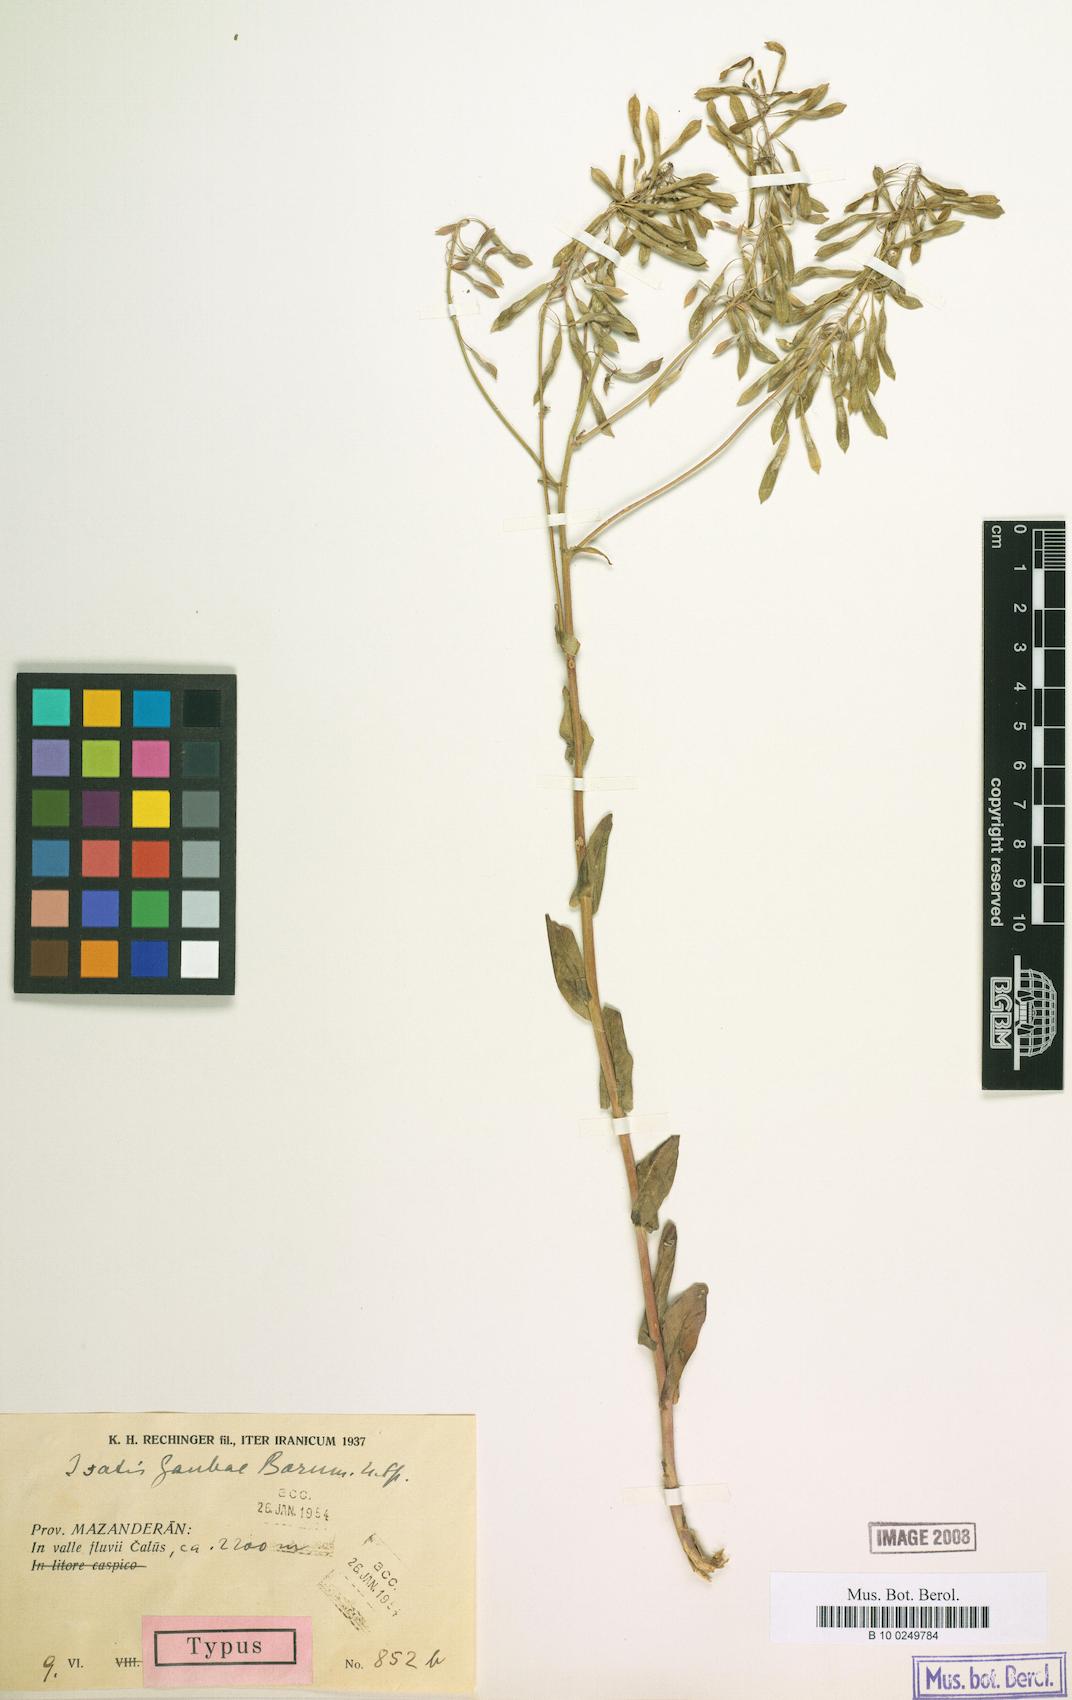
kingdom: Plantae
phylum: Tracheophyta
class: Magnoliopsida
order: Brassicales
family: Brassicaceae
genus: Isatis
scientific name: Isatis gaubae
